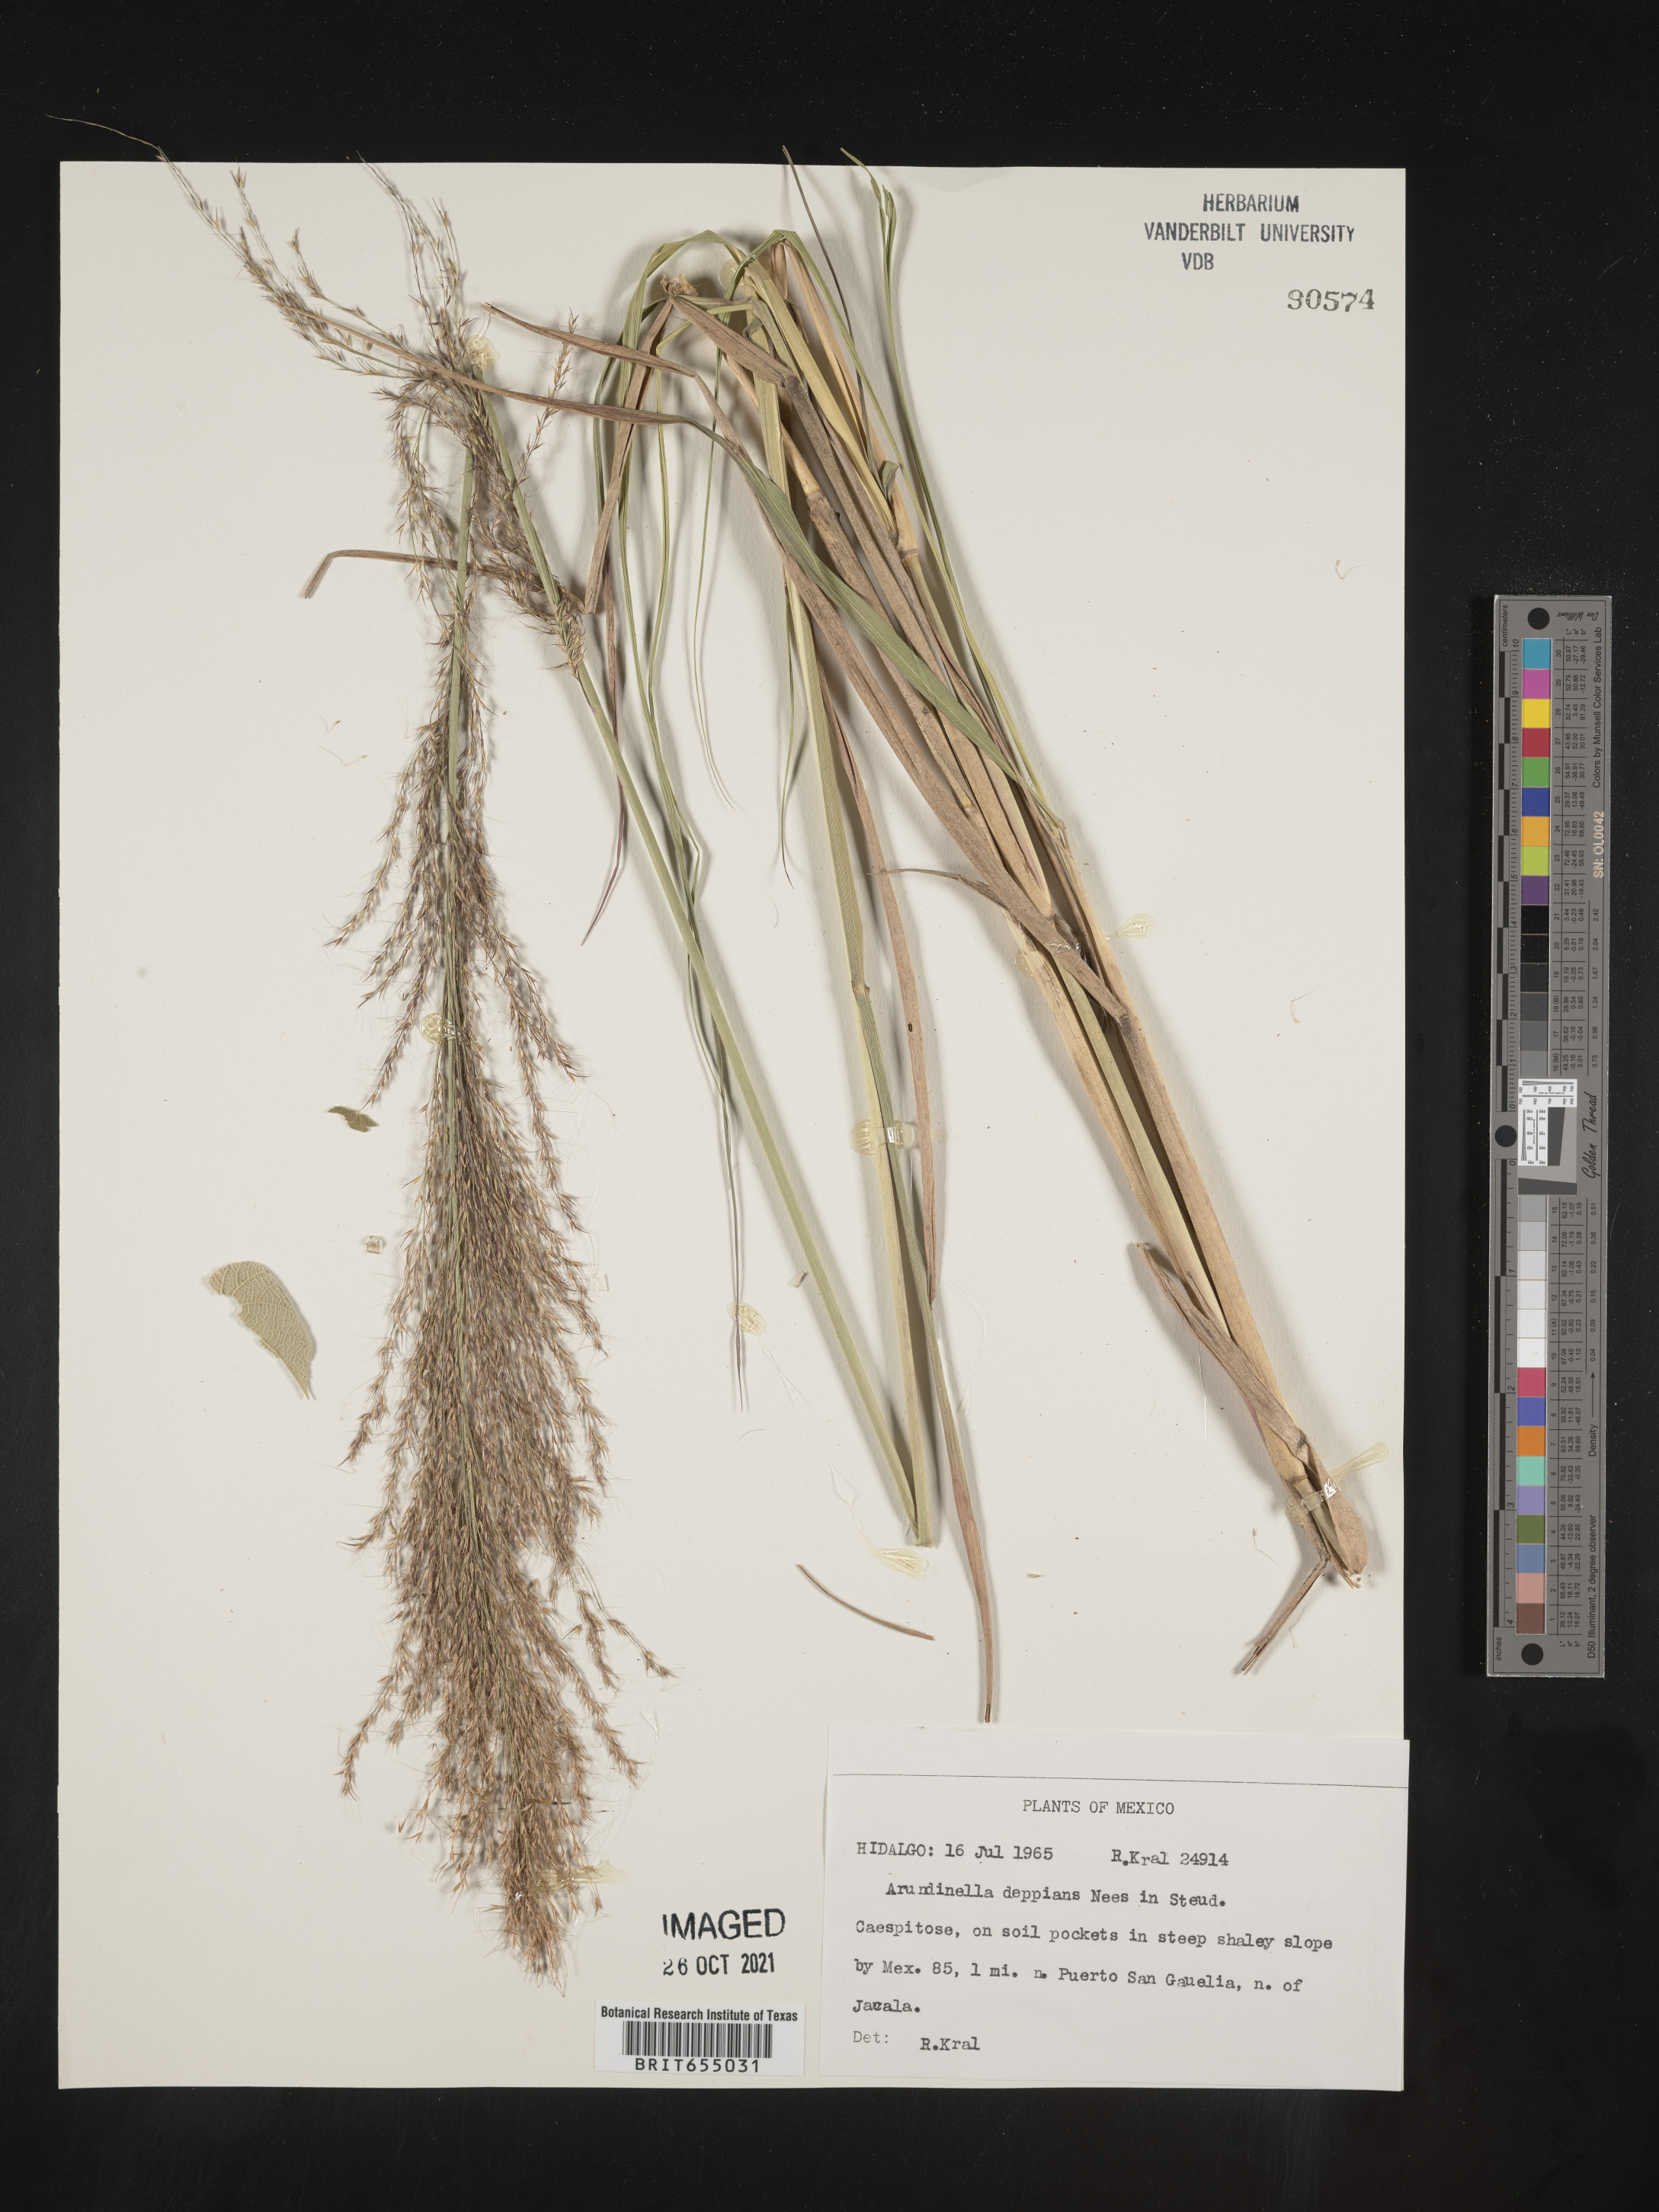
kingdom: Plantae
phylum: Tracheophyta
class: Liliopsida
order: Poales
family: Poaceae
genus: Arundinella
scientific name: Arundinella
